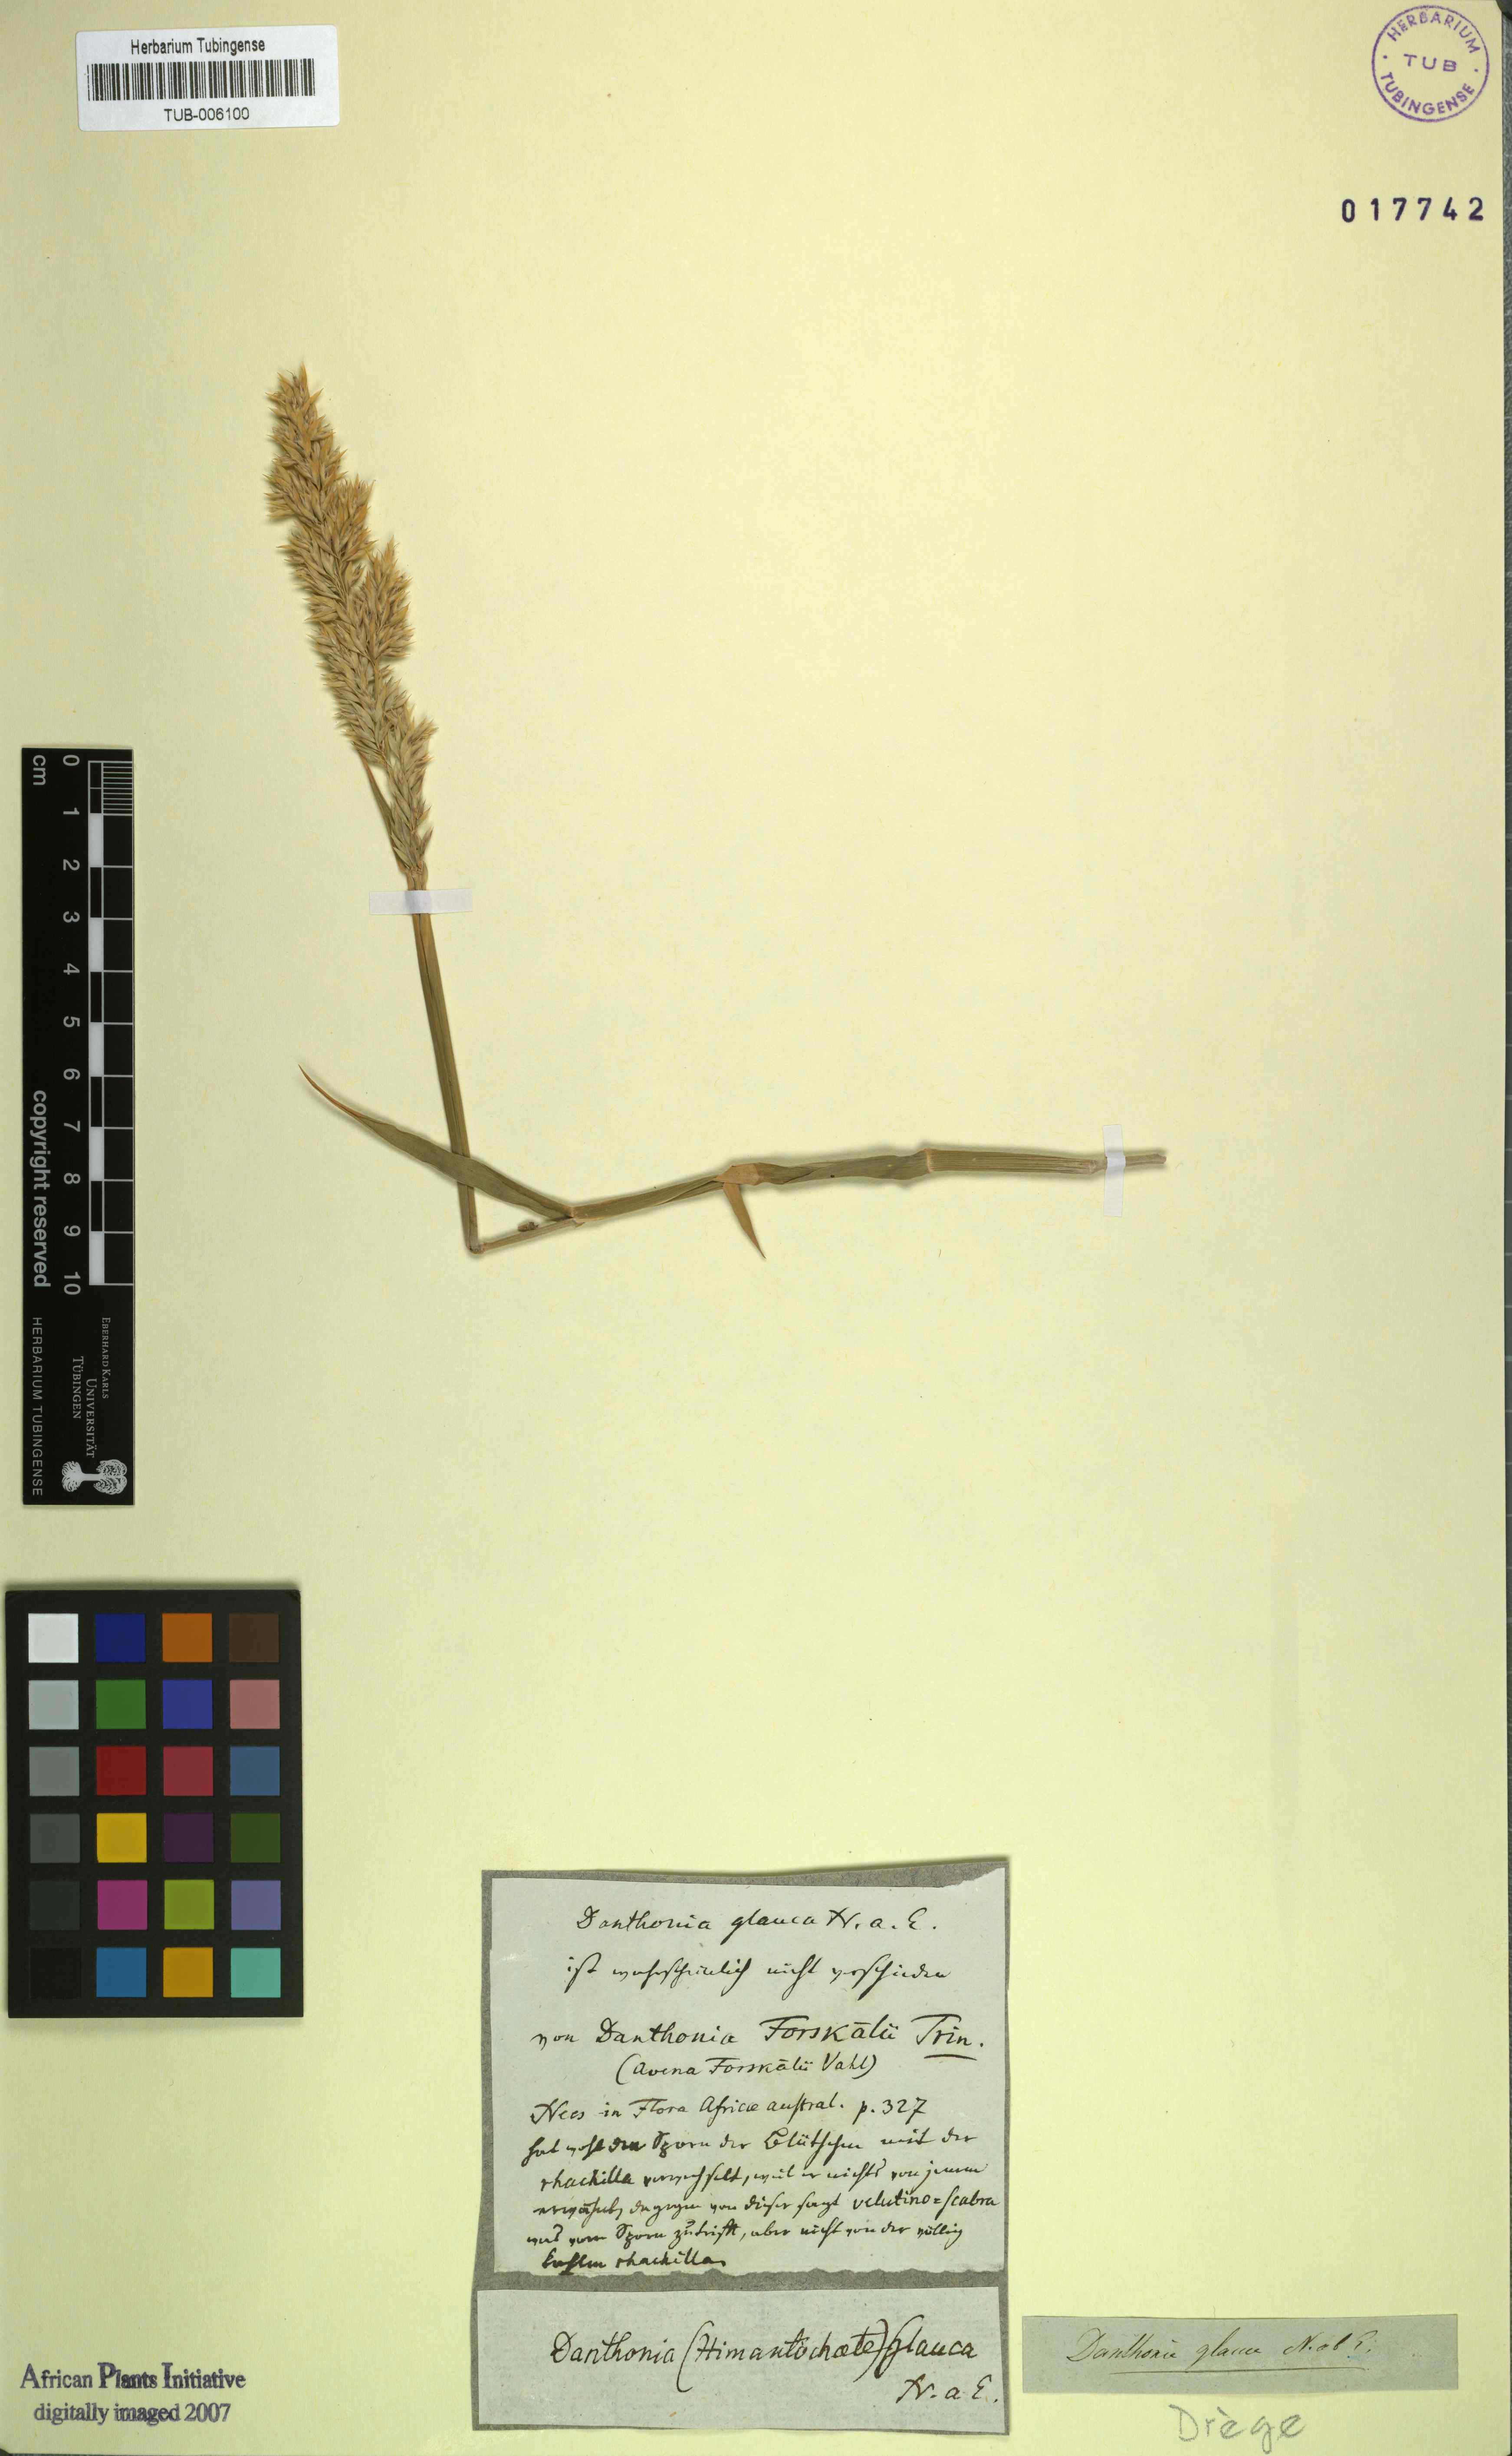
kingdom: Plantae
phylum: Tracheophyta
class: Liliopsida
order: Poales
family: Poaceae
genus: Centropodia
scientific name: Centropodia glauca
